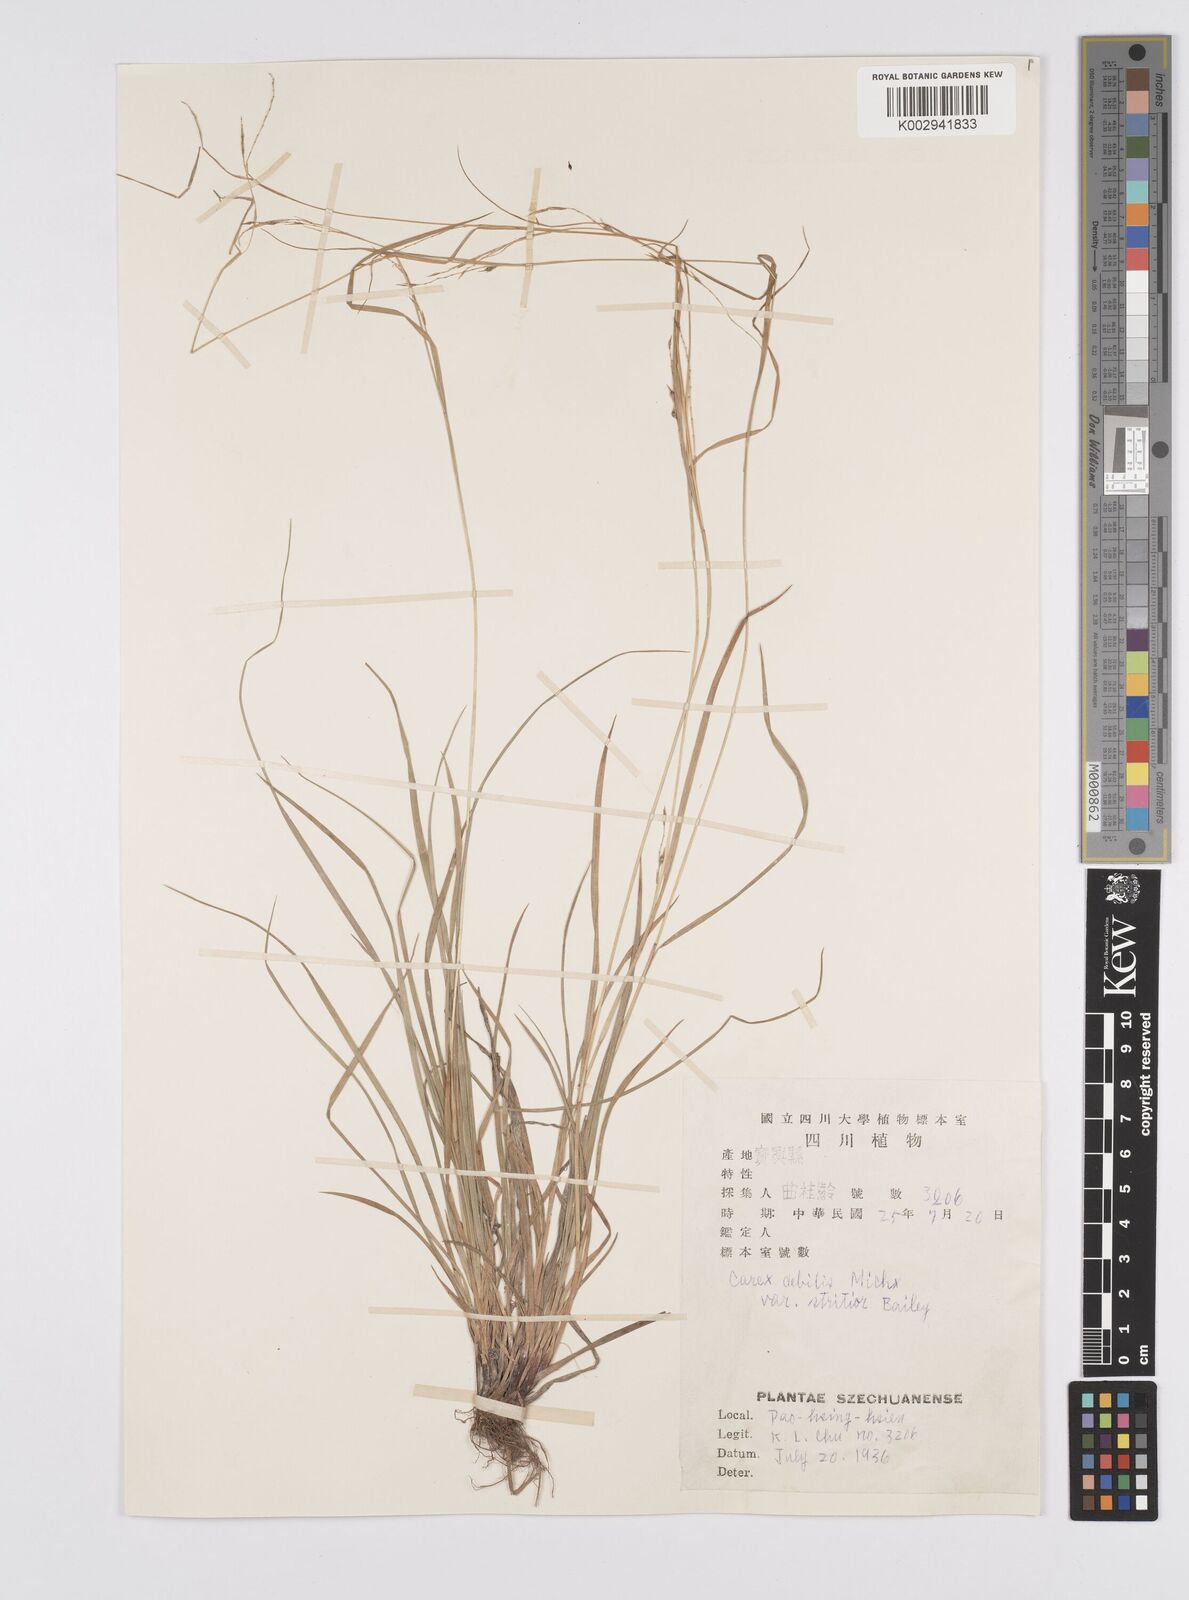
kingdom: Plantae
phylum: Tracheophyta
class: Liliopsida
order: Poales
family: Cyperaceae
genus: Carex
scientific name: Carex gentilis
